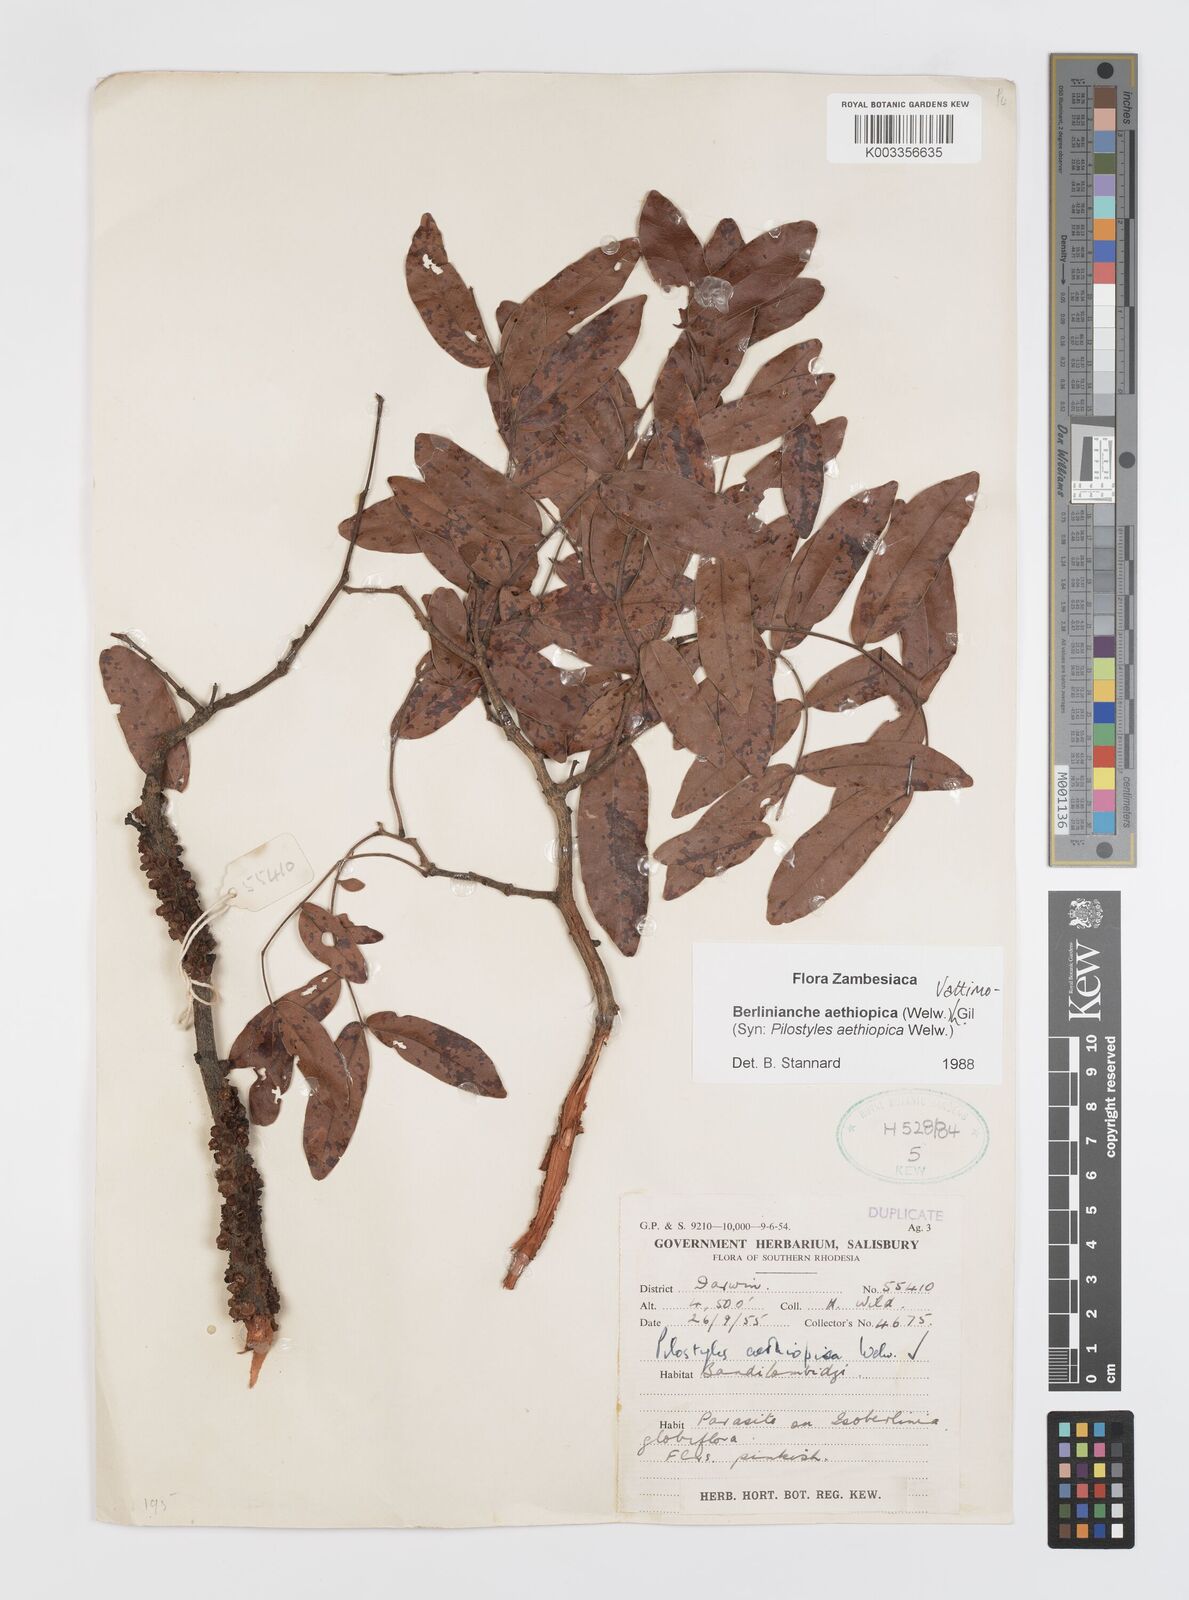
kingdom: Plantae
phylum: Tracheophyta
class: Magnoliopsida
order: Cucurbitales
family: Apodanthaceae
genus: Pilostyles
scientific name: Pilostyles aethiopica
